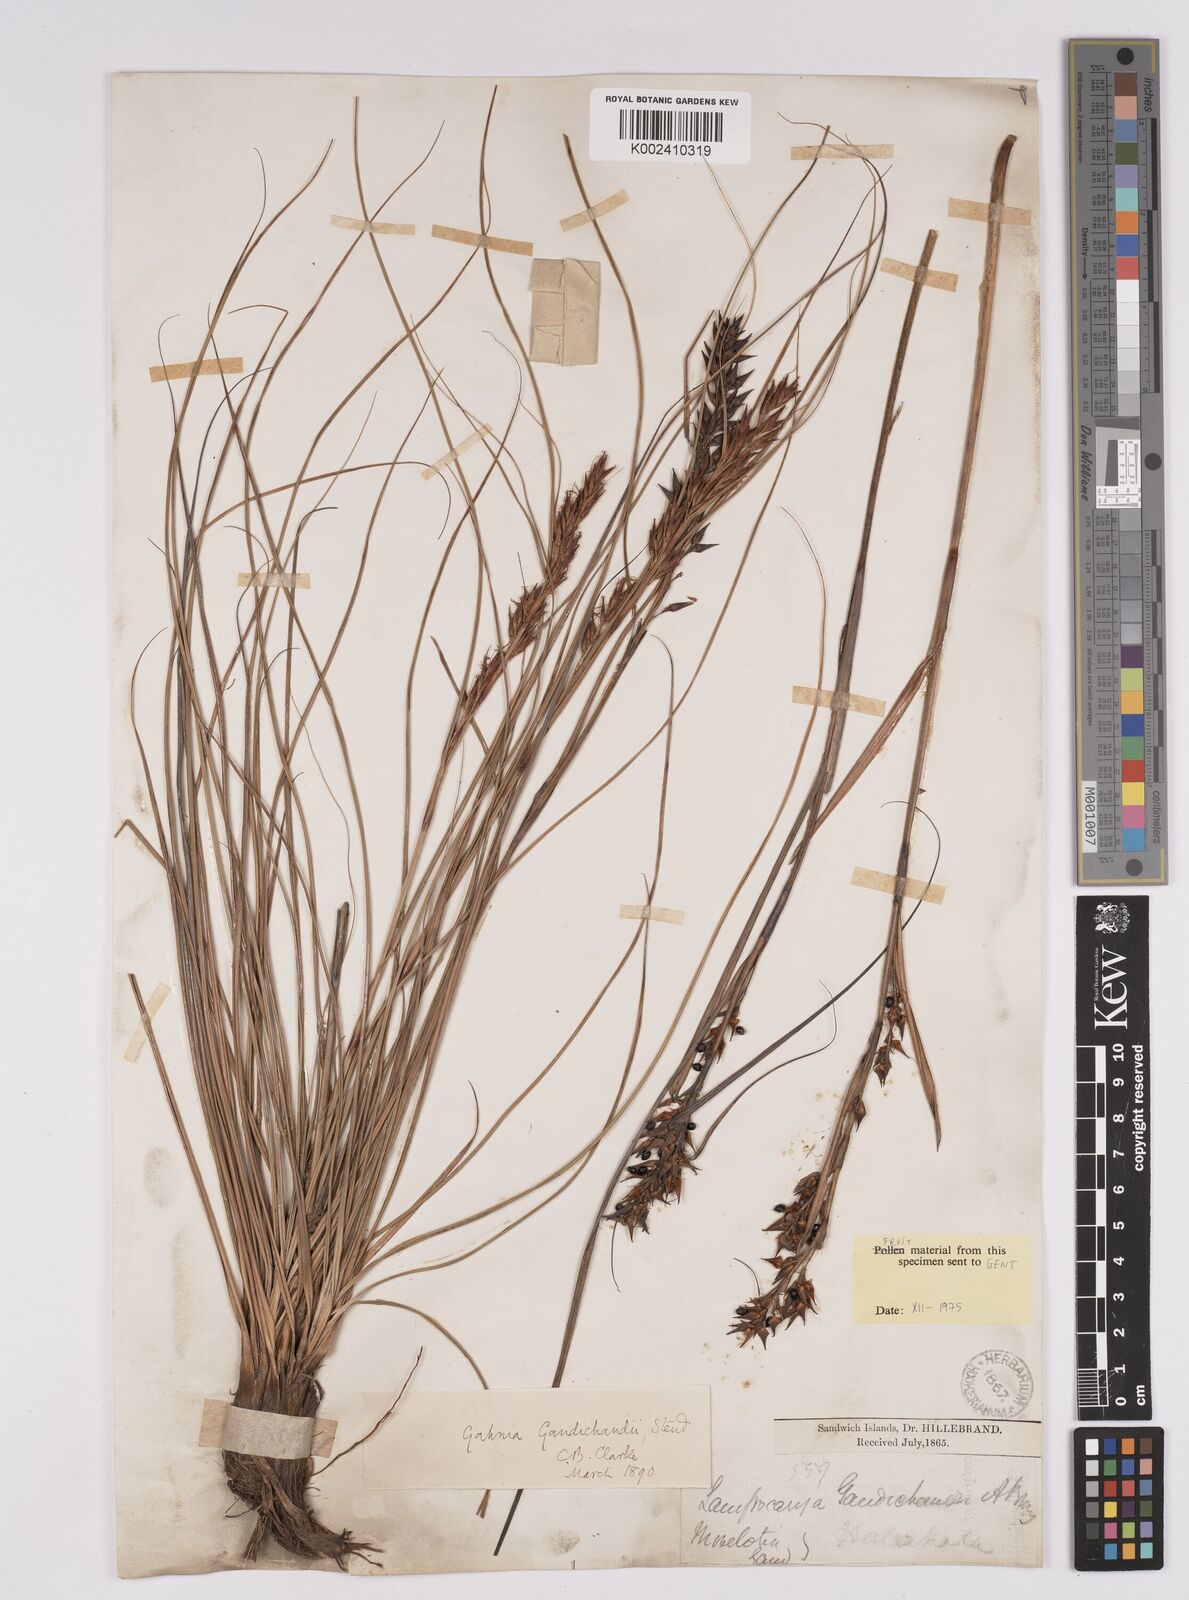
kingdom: Plantae
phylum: Tracheophyta
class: Liliopsida
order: Poales
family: Cyperaceae
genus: Morelotia
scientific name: Morelotia gahniiformis
